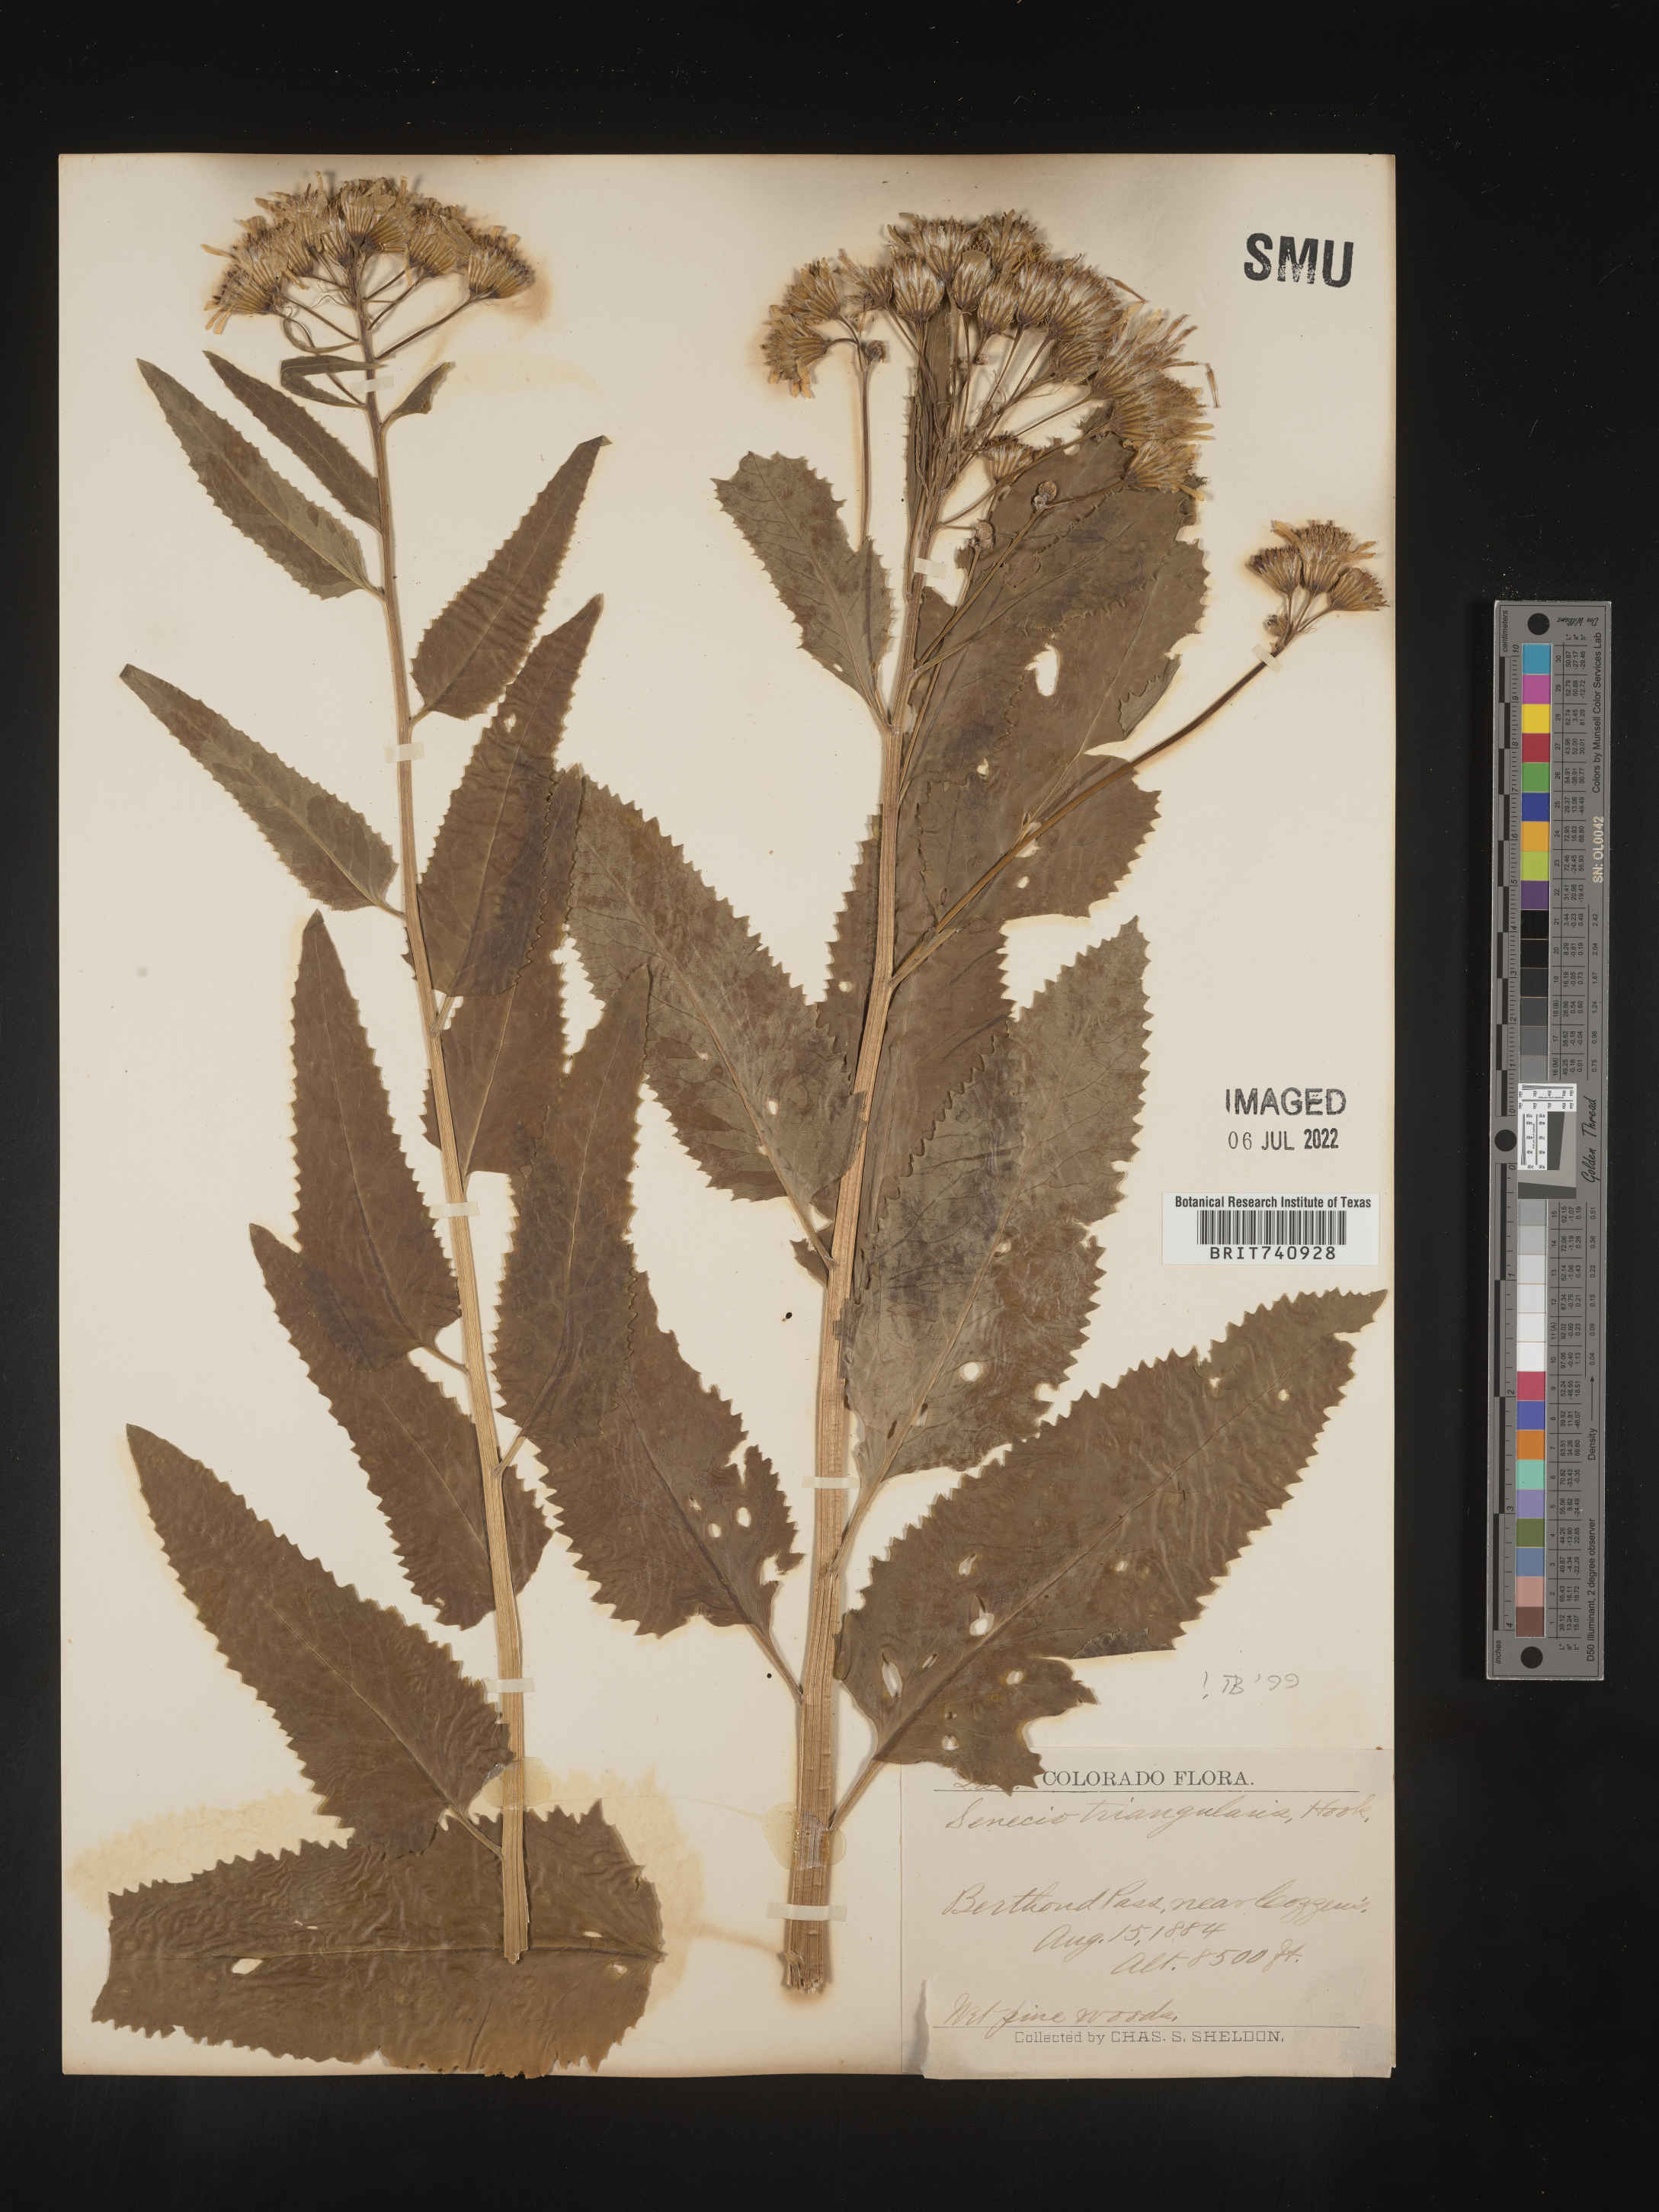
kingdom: Plantae
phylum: Tracheophyta
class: Magnoliopsida
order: Asterales
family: Asteraceae
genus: Senecio
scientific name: Senecio triangularis
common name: Arrowleaf butterweed
